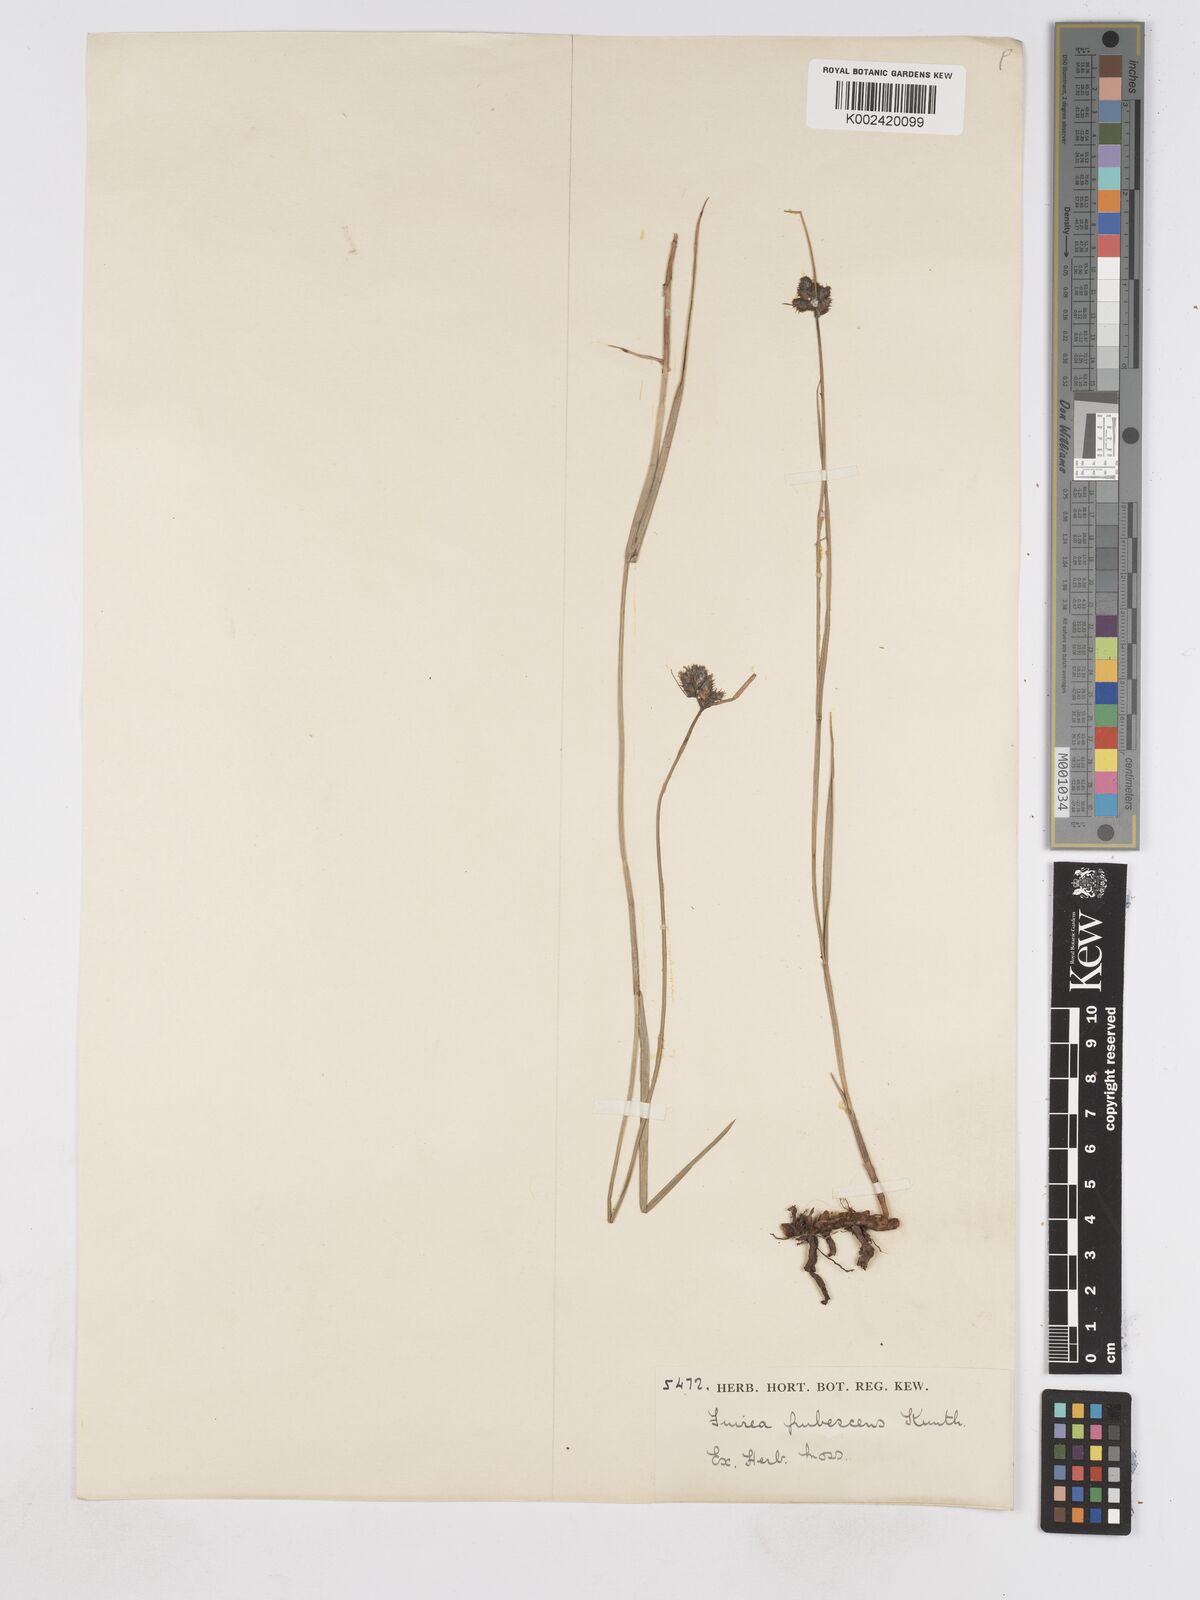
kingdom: Plantae
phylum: Tracheophyta
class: Liliopsida
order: Poales
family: Cyperaceae
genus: Fuirena
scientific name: Fuirena pubescens
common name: Hairy sedge
